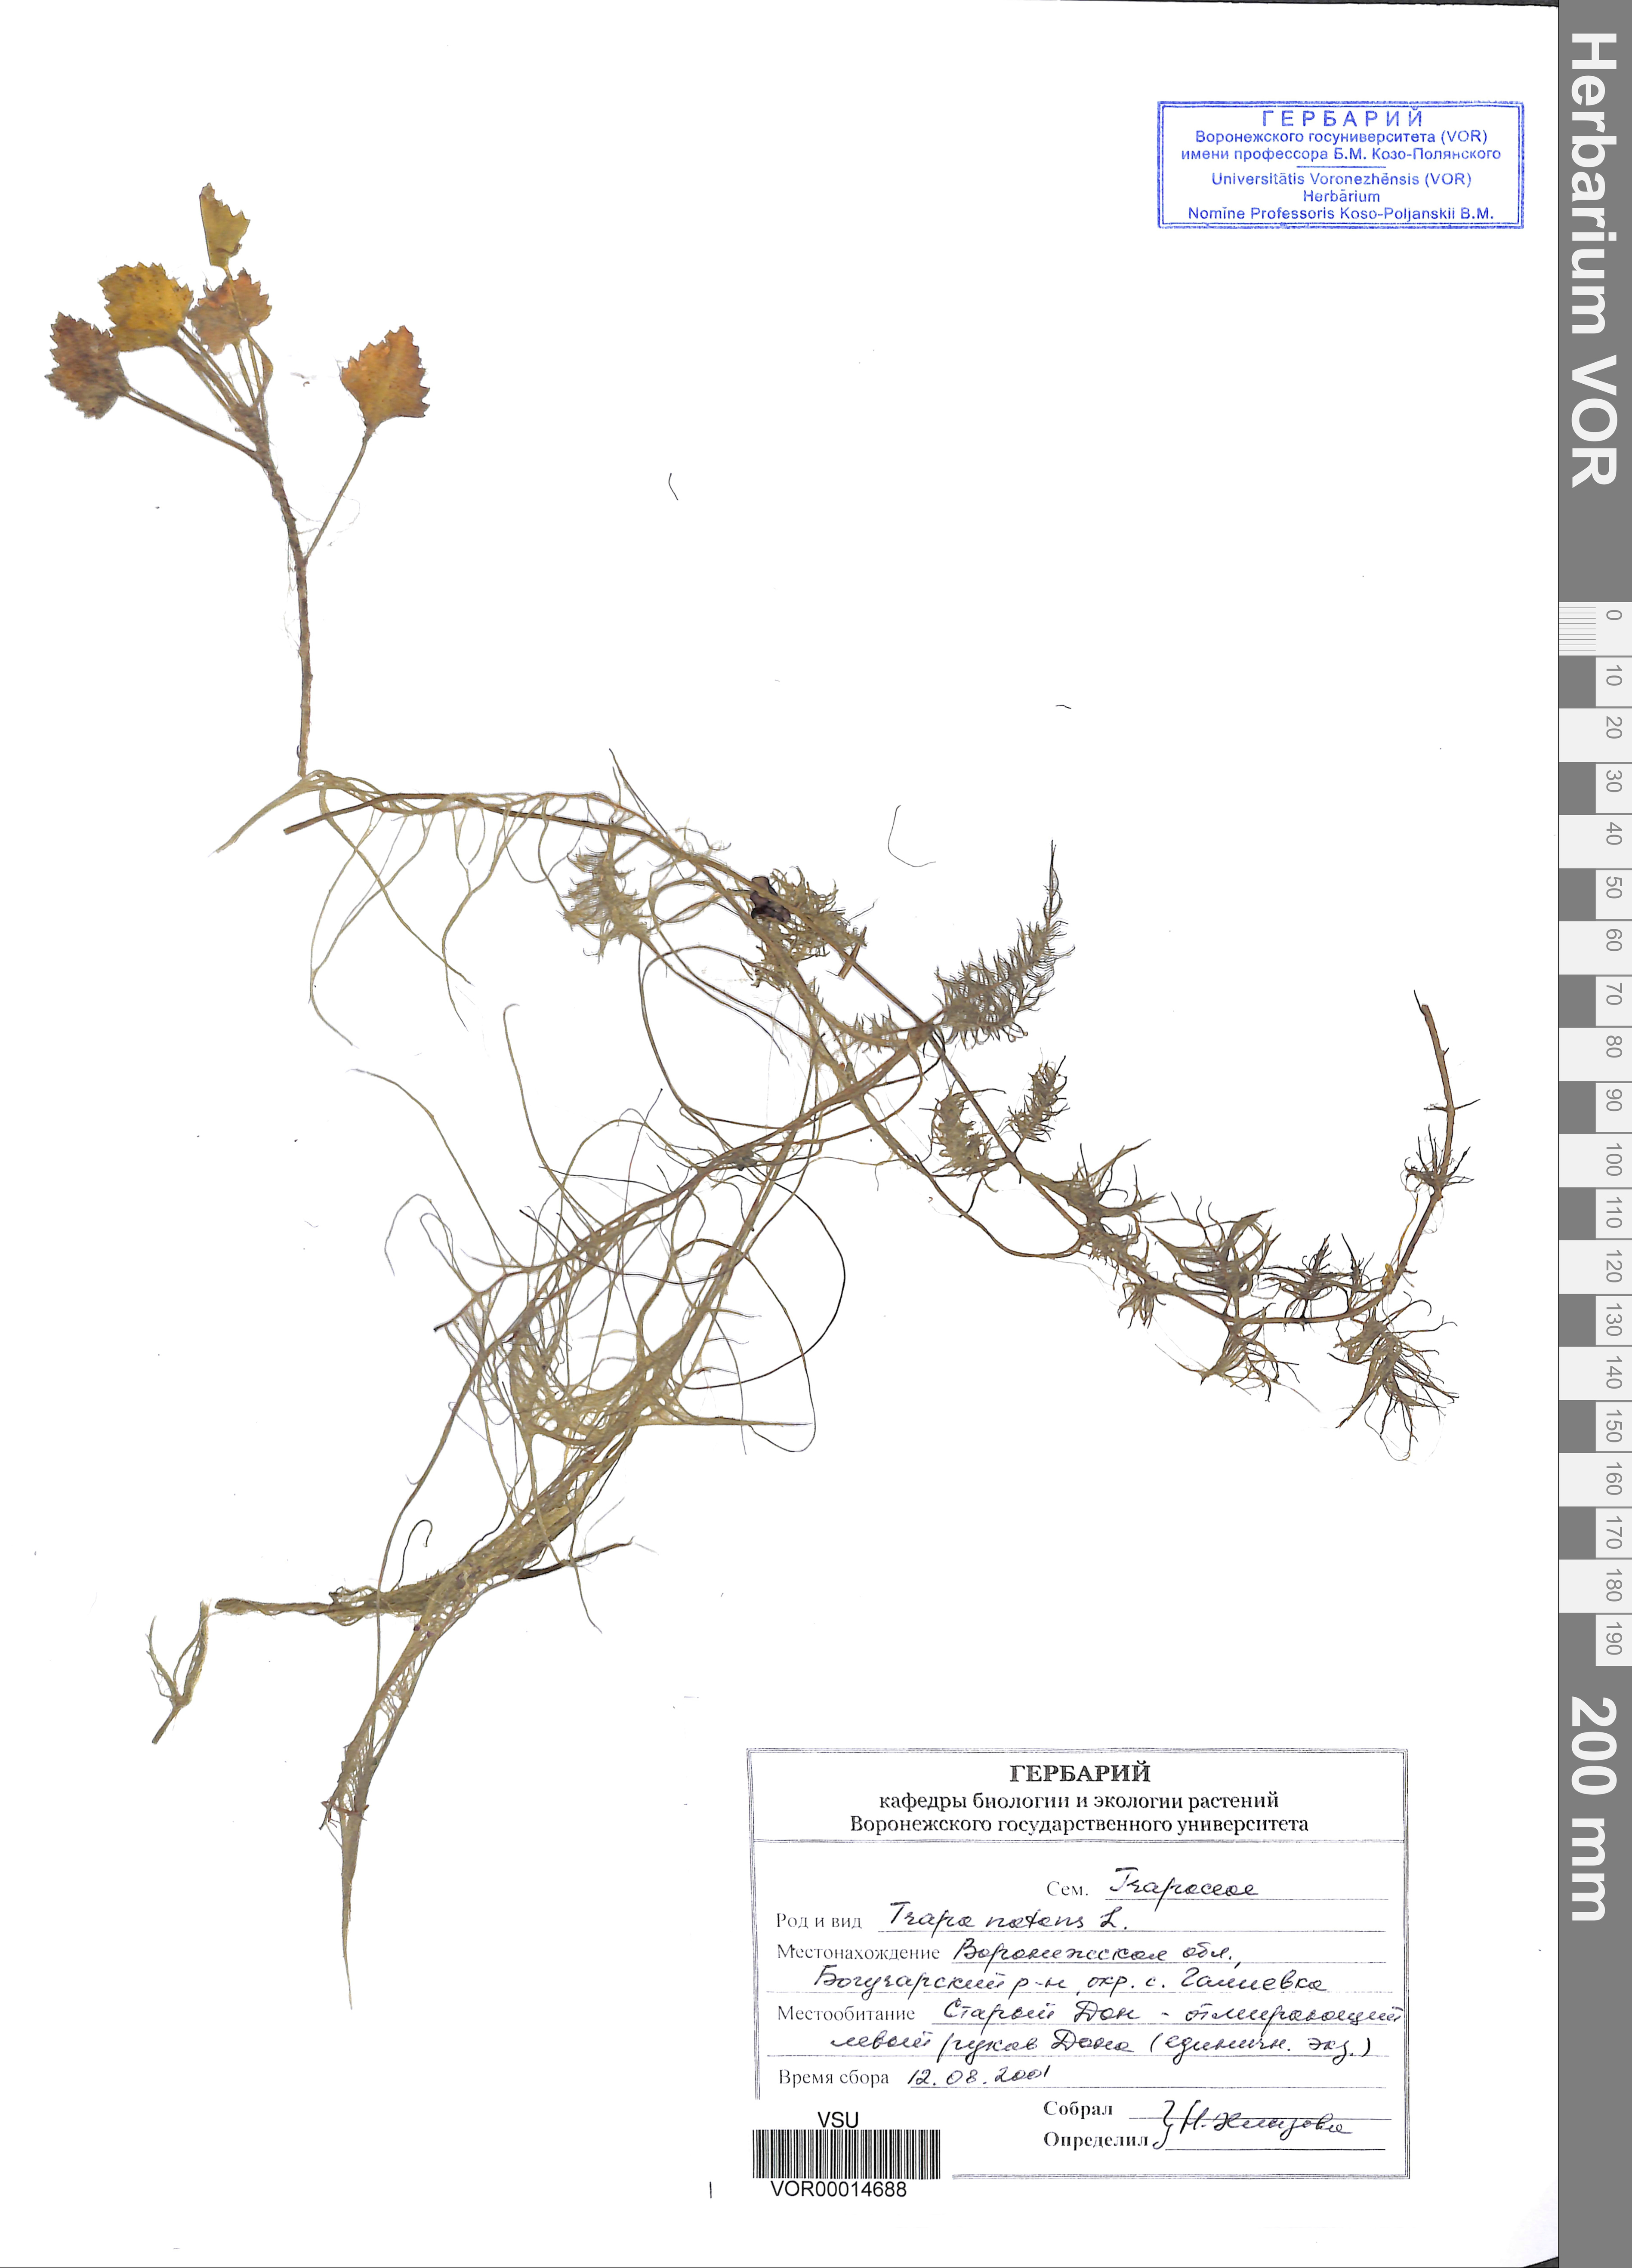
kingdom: Plantae
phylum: Tracheophyta
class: Magnoliopsida
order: Myrtales
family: Lythraceae
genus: Trapa
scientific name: Trapa natans
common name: Water chestnut
